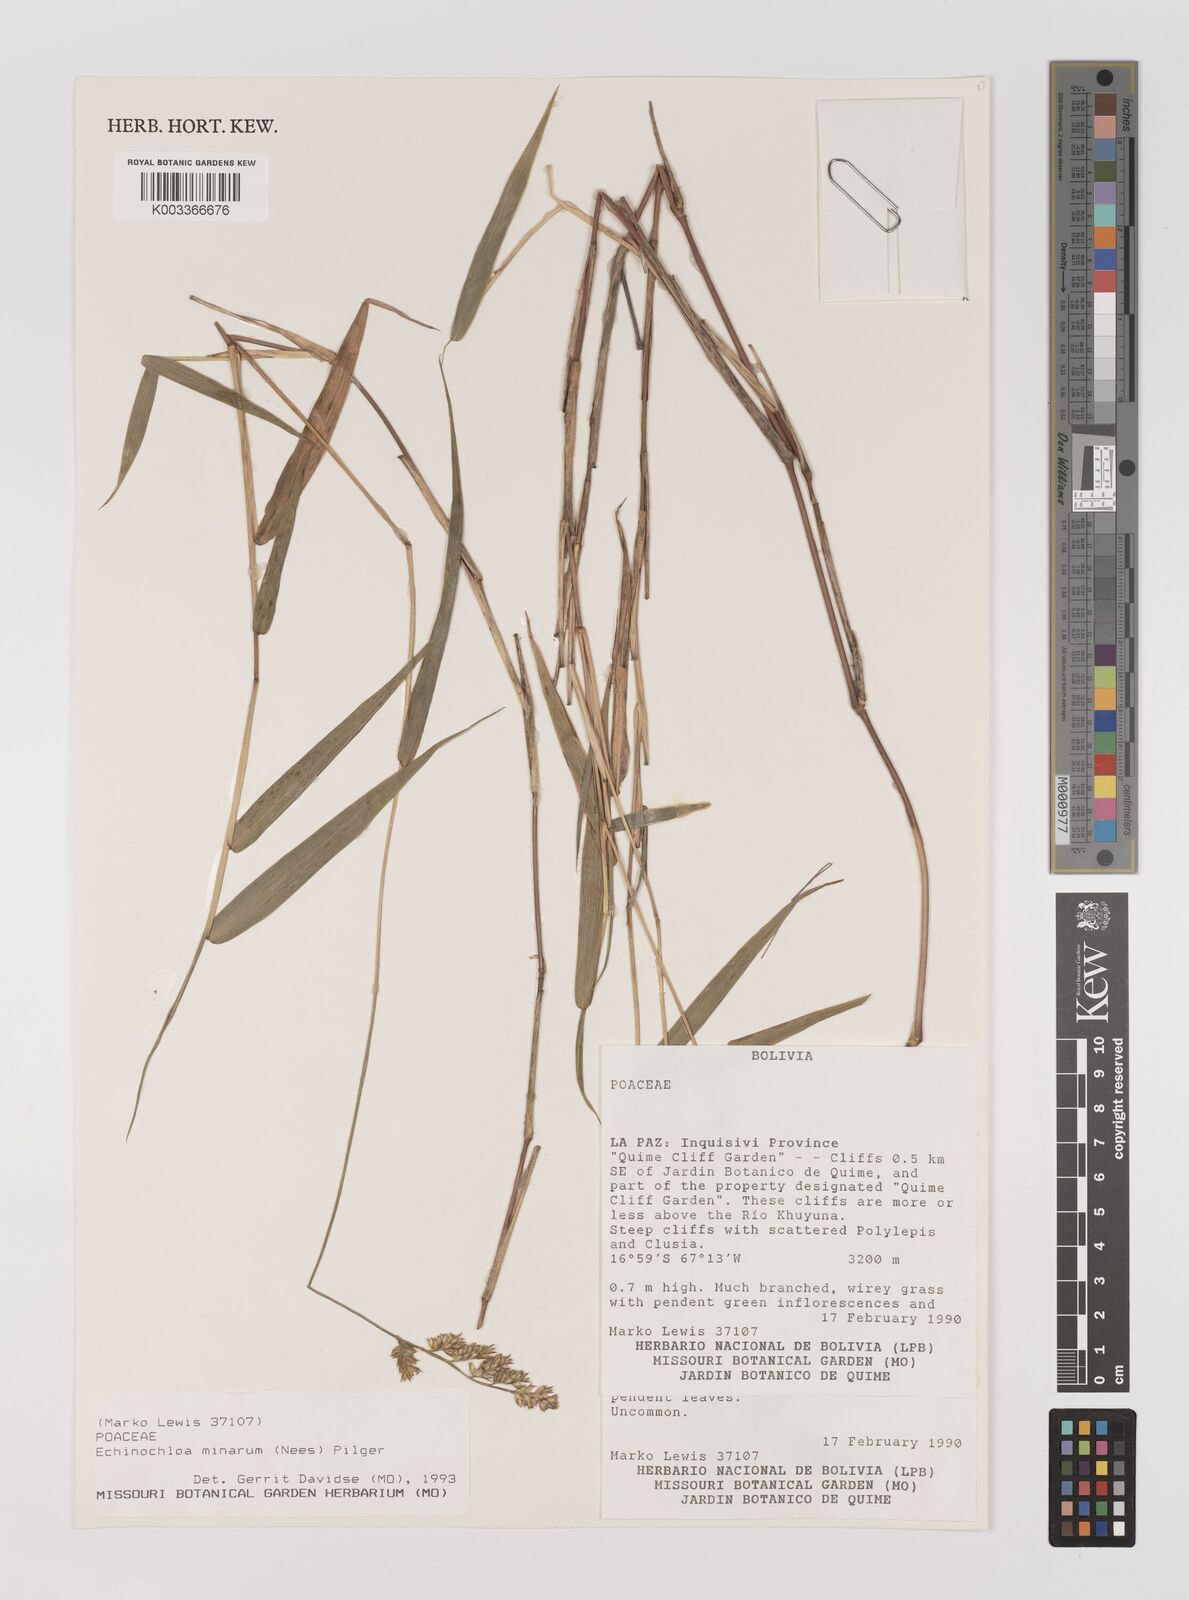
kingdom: Plantae
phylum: Tracheophyta
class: Liliopsida
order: Poales
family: Poaceae
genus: Oedochloa
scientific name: Oedochloa minarum
